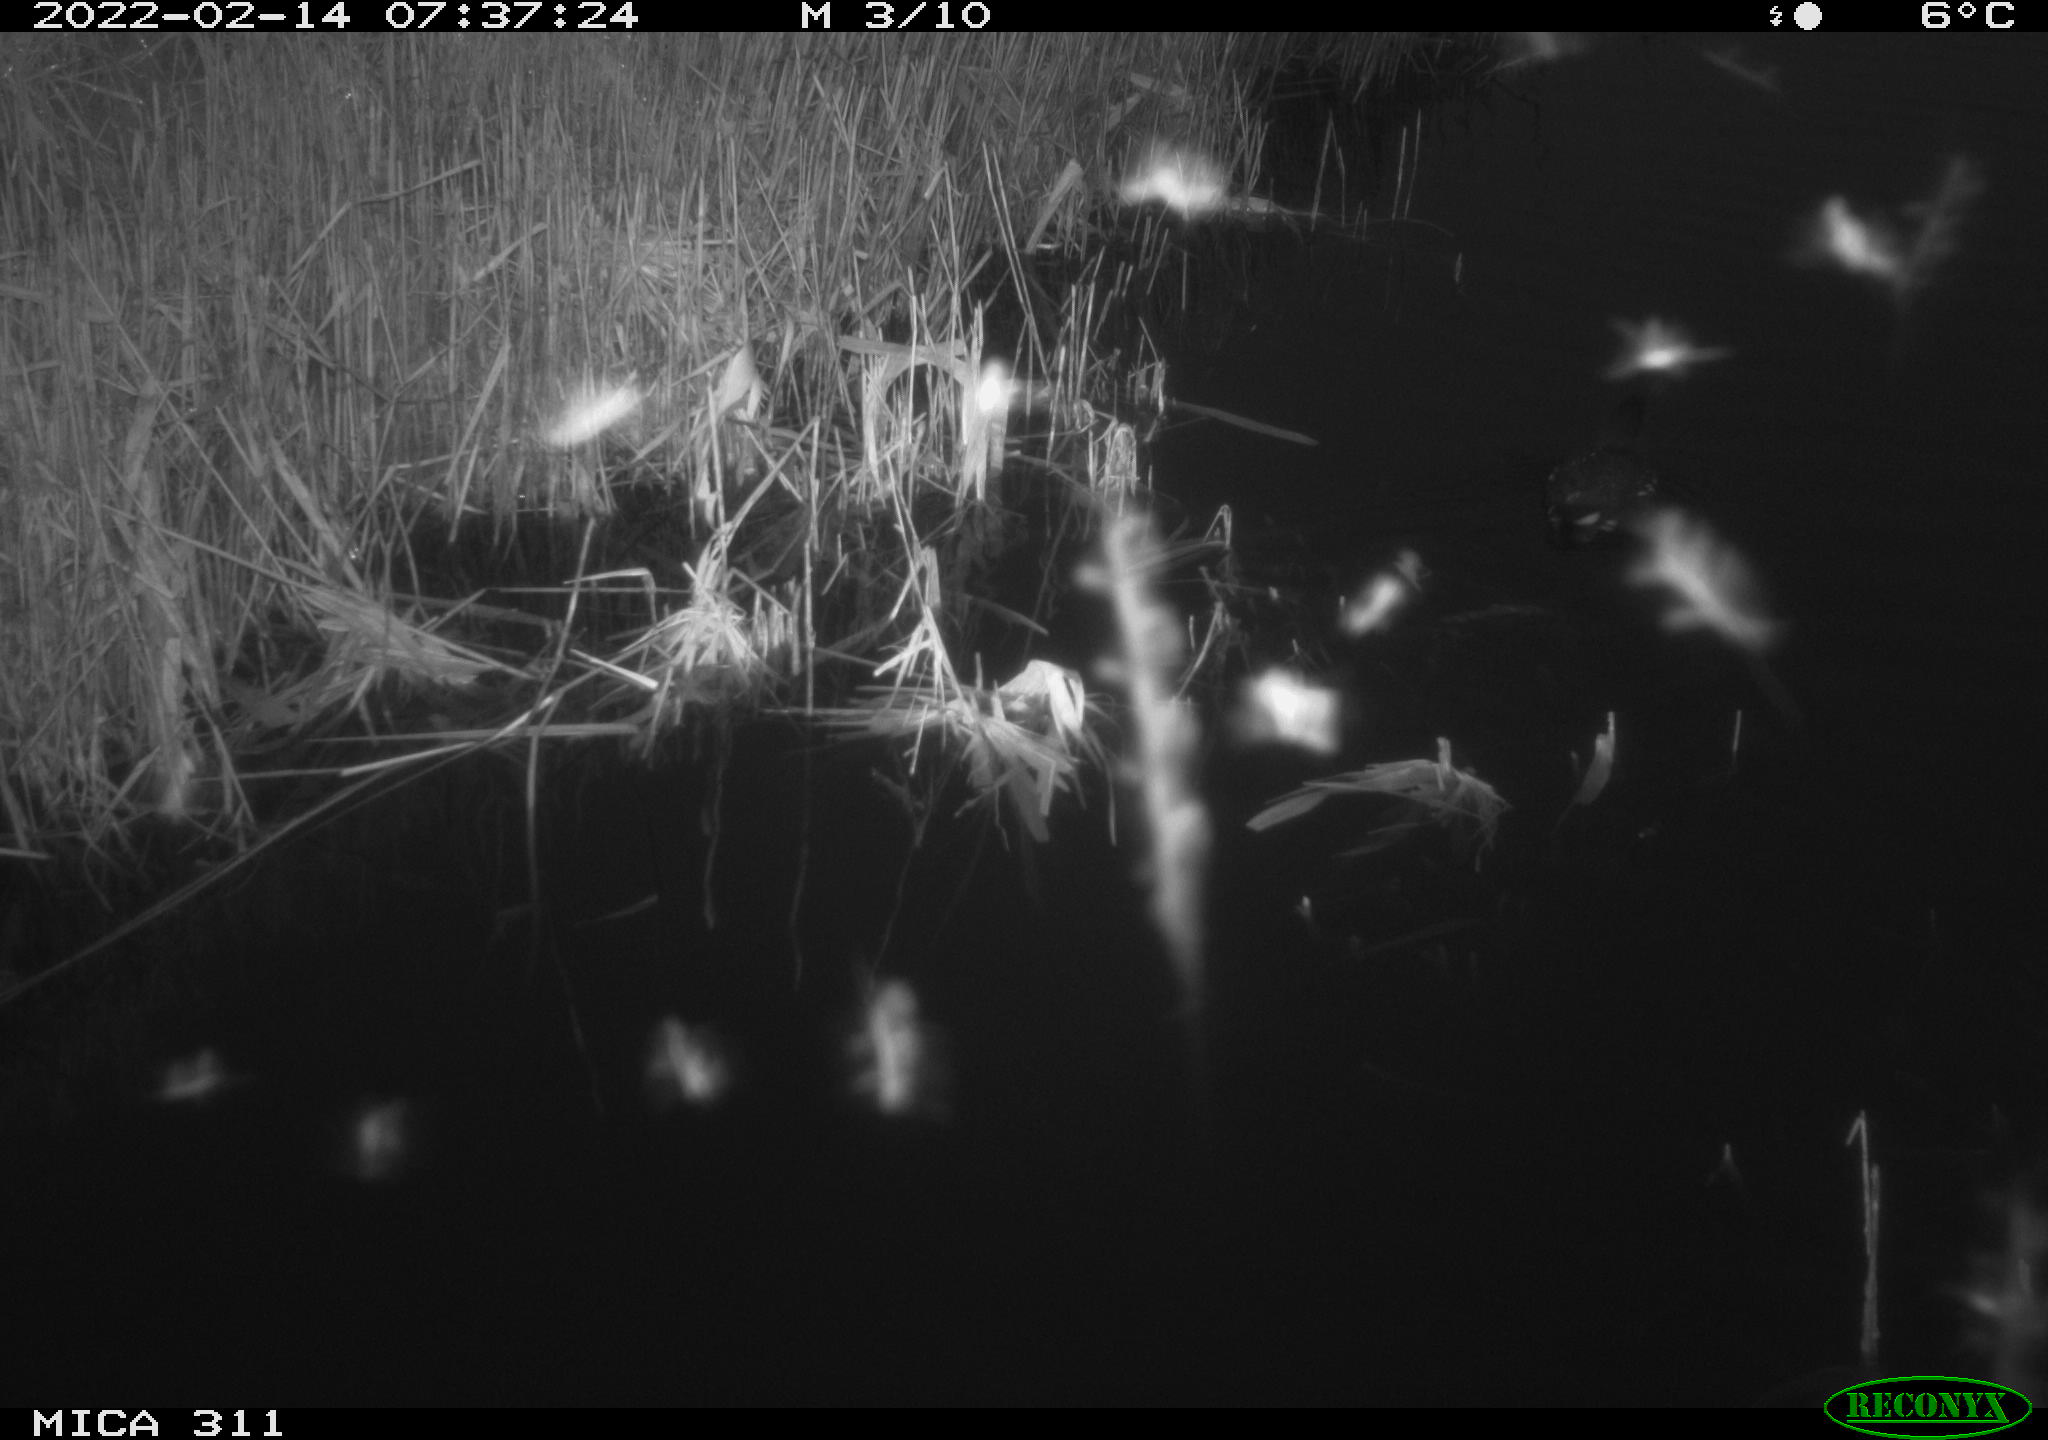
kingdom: Animalia
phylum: Chordata
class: Aves
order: Gruiformes
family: Rallidae
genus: Gallinula
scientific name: Gallinula chloropus
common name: Common moorhen
